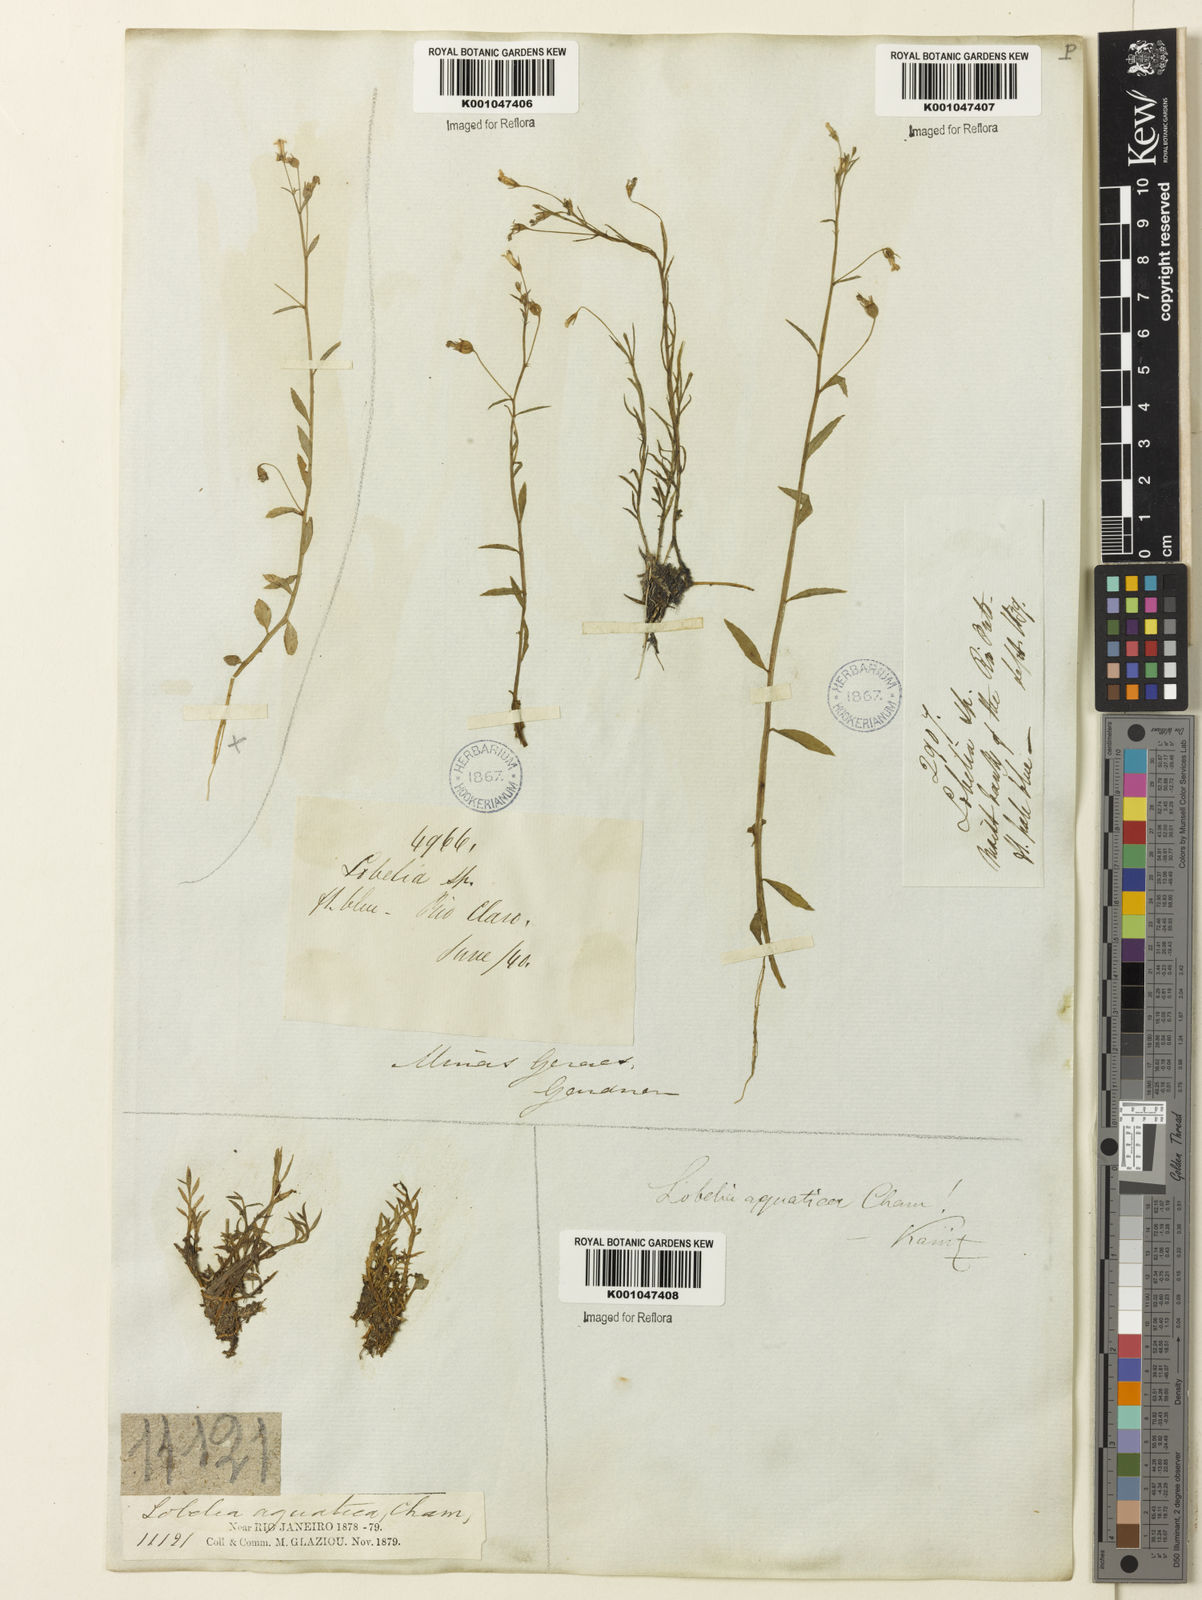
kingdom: Plantae
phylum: Tracheophyta
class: Magnoliopsida
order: Asterales
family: Campanulaceae
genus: Lobelia
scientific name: Lobelia aquatica
